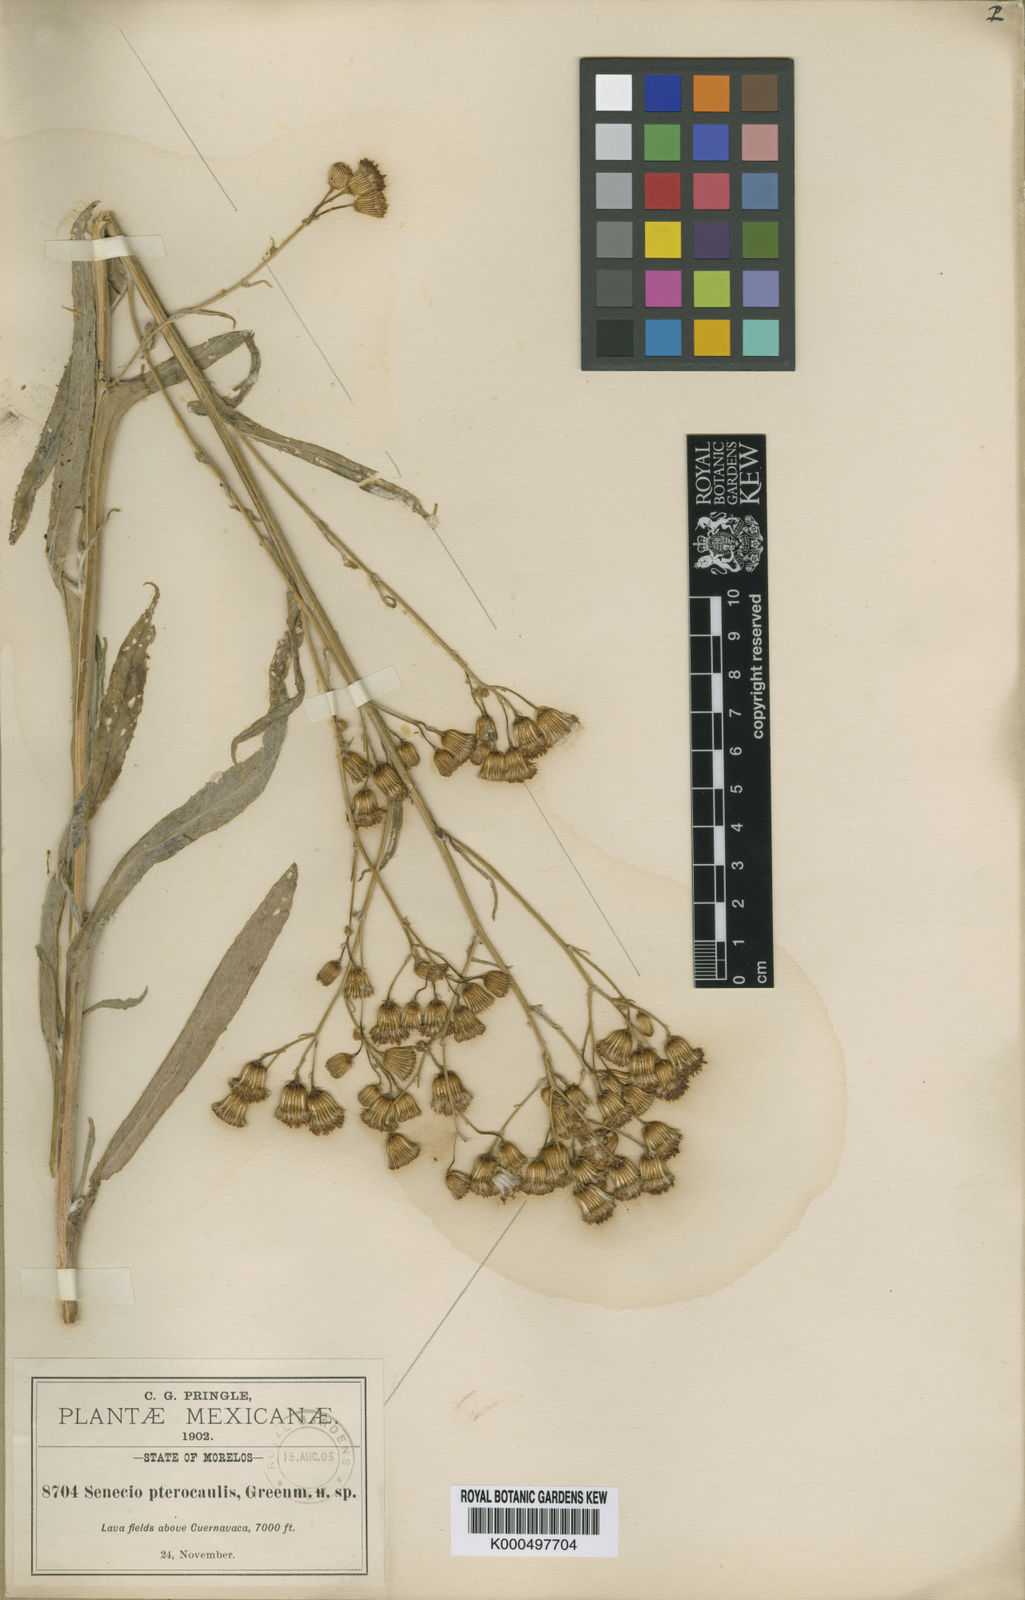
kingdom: Plantae
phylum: Tracheophyta
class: Magnoliopsida
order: Asterales
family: Asteraceae
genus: Packera
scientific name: Packera werneriifolia
